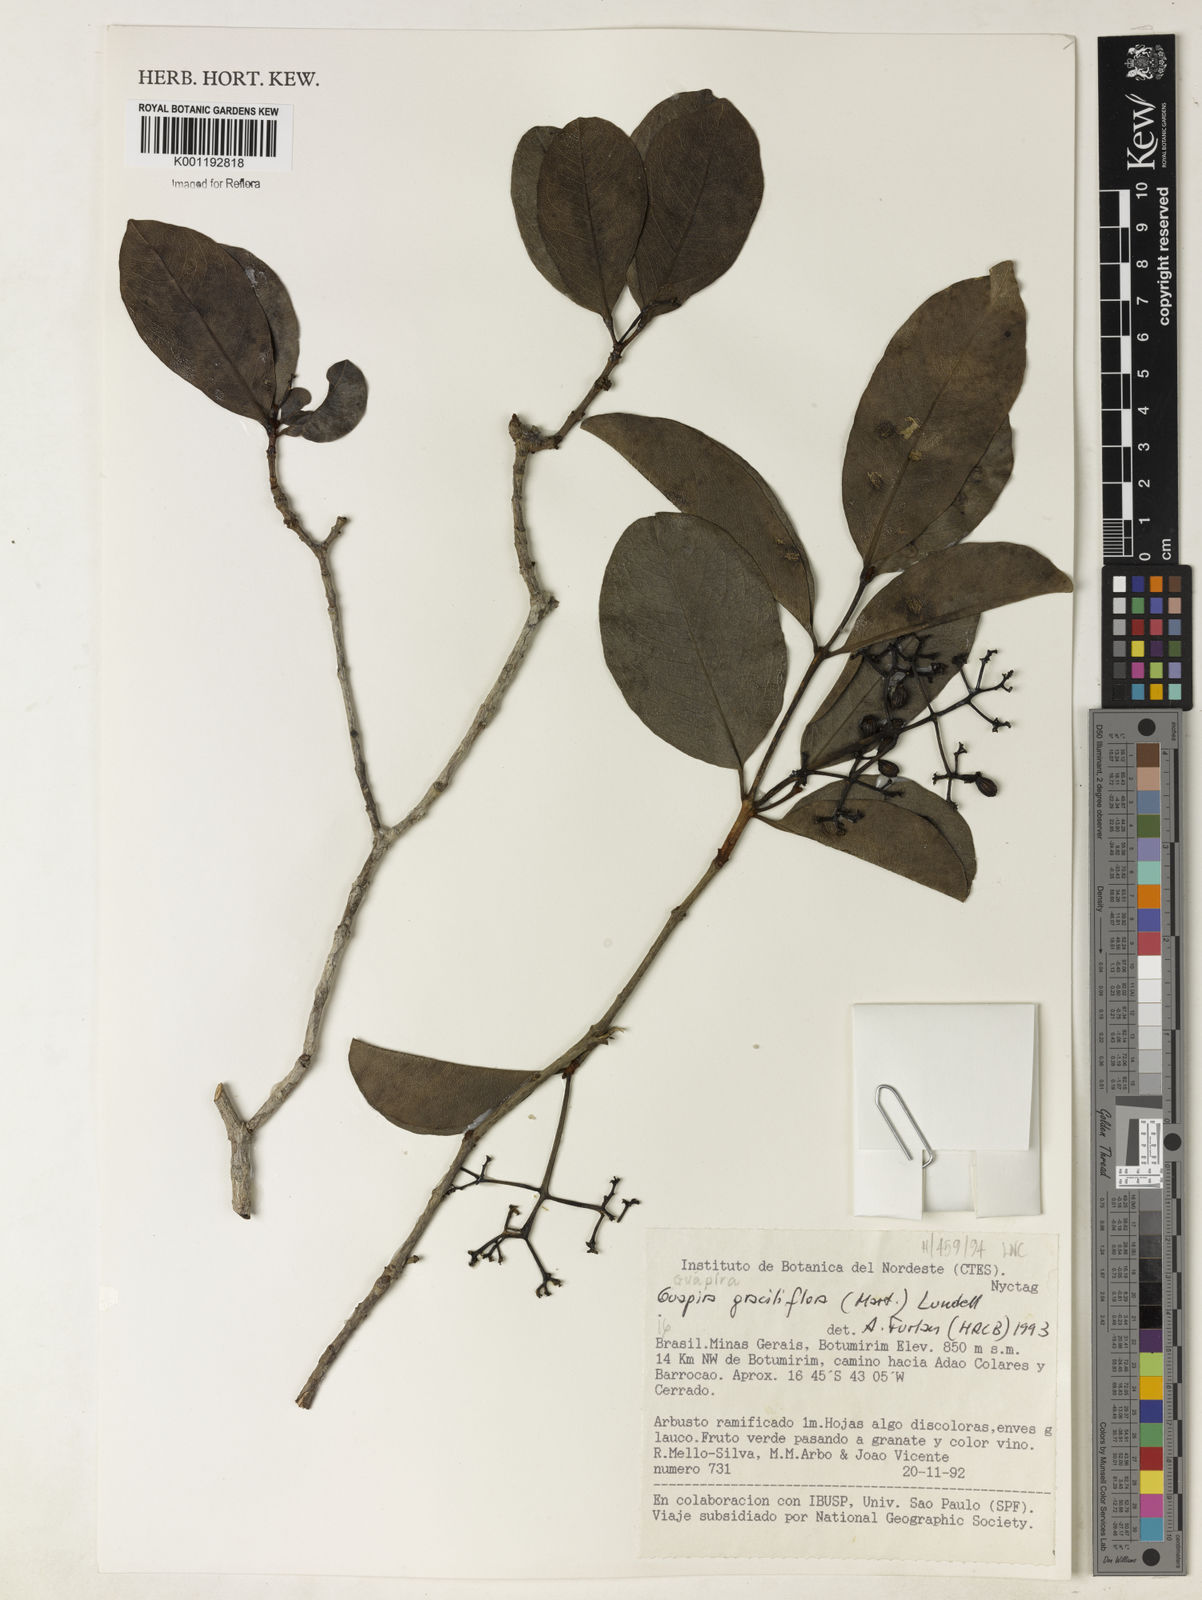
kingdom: Plantae
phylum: Tracheophyta
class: Magnoliopsida
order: Caryophyllales
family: Nyctaginaceae
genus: Guapira
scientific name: Guapira graciliflora
